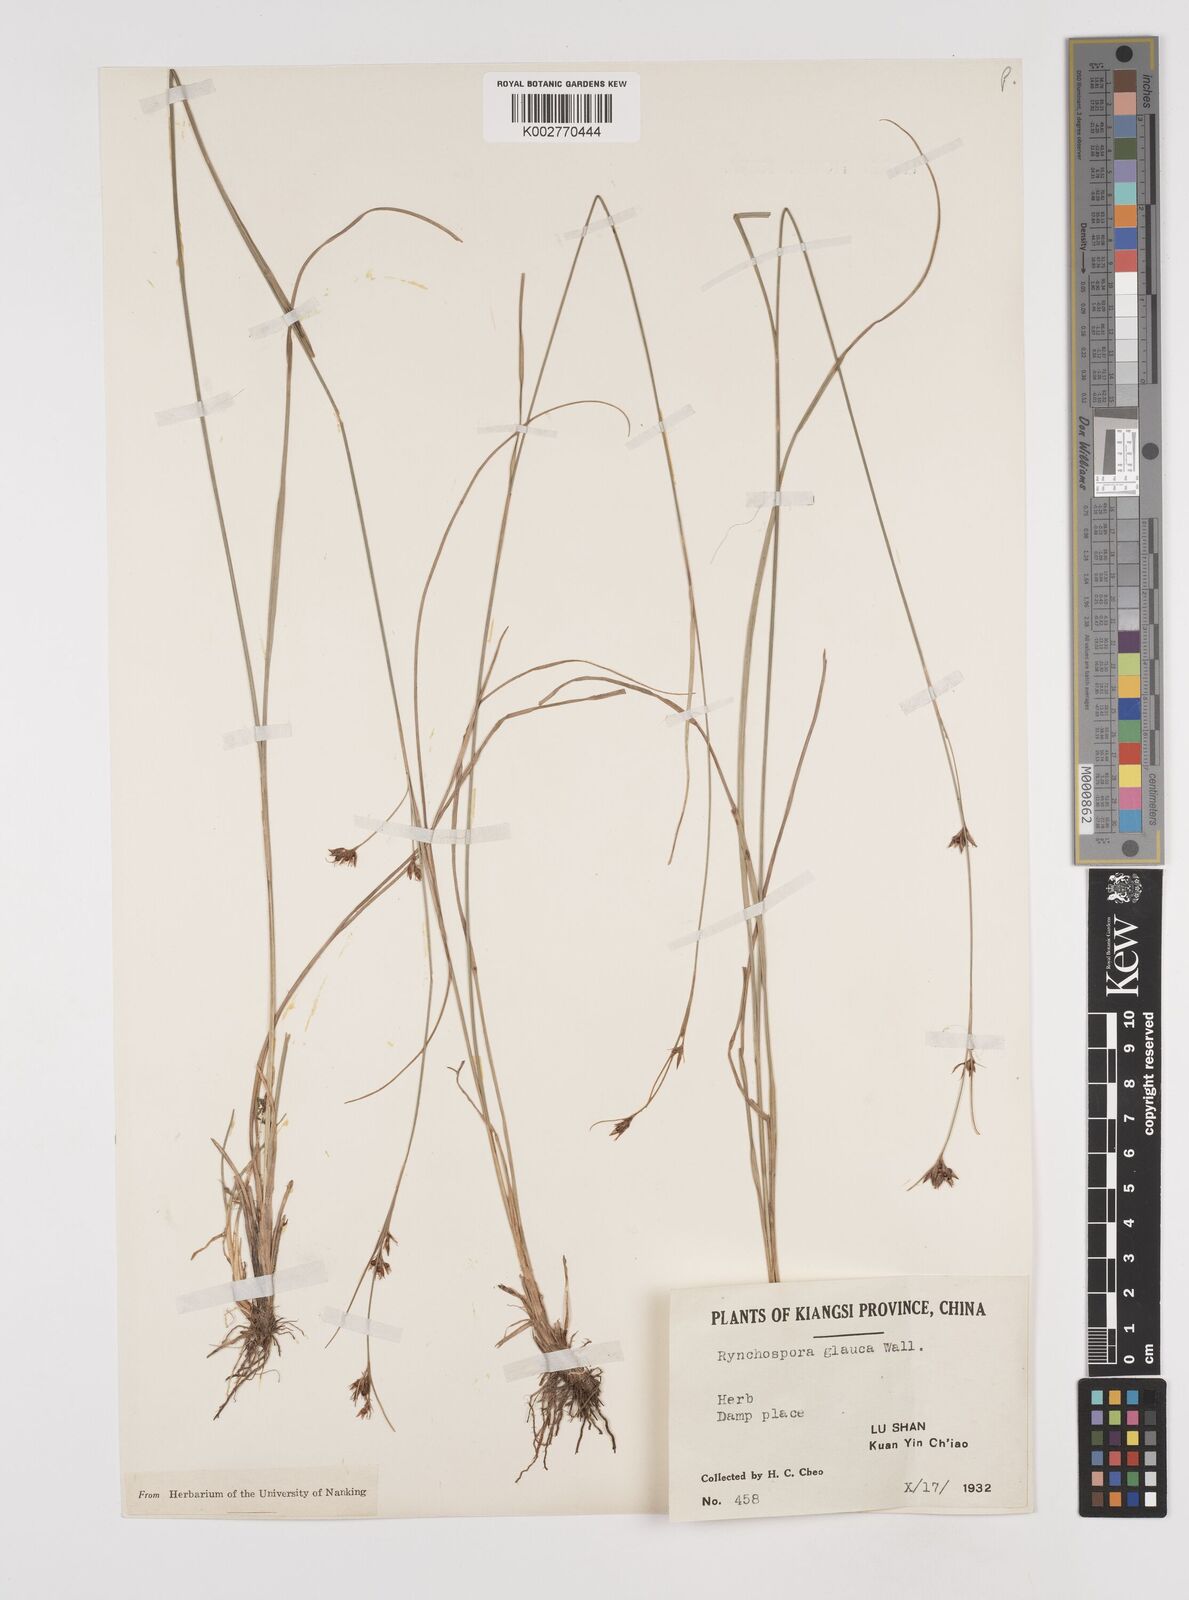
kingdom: Plantae
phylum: Tracheophyta
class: Liliopsida
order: Poales
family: Cyperaceae
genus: Rhynchospora
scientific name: Rhynchospora
